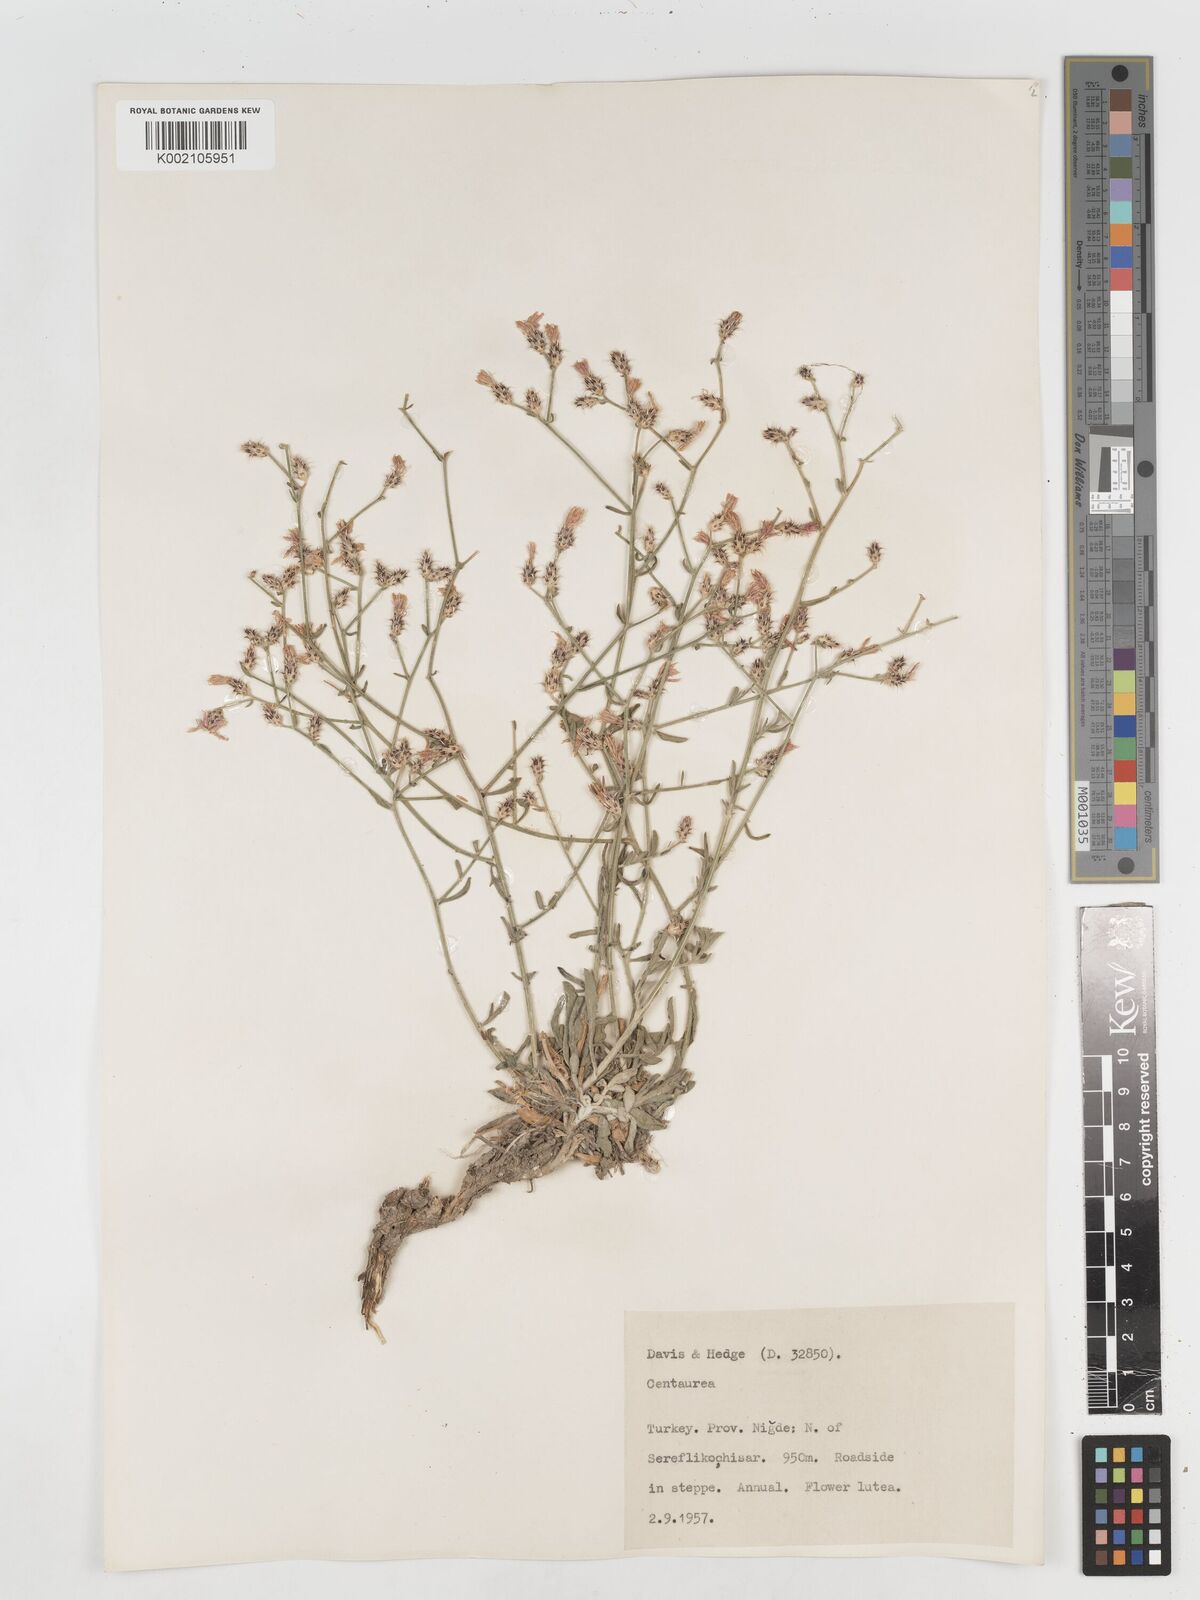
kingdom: Plantae
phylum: Tracheophyta
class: Magnoliopsida
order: Asterales
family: Asteraceae
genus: Centaurea
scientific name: Centaurea
